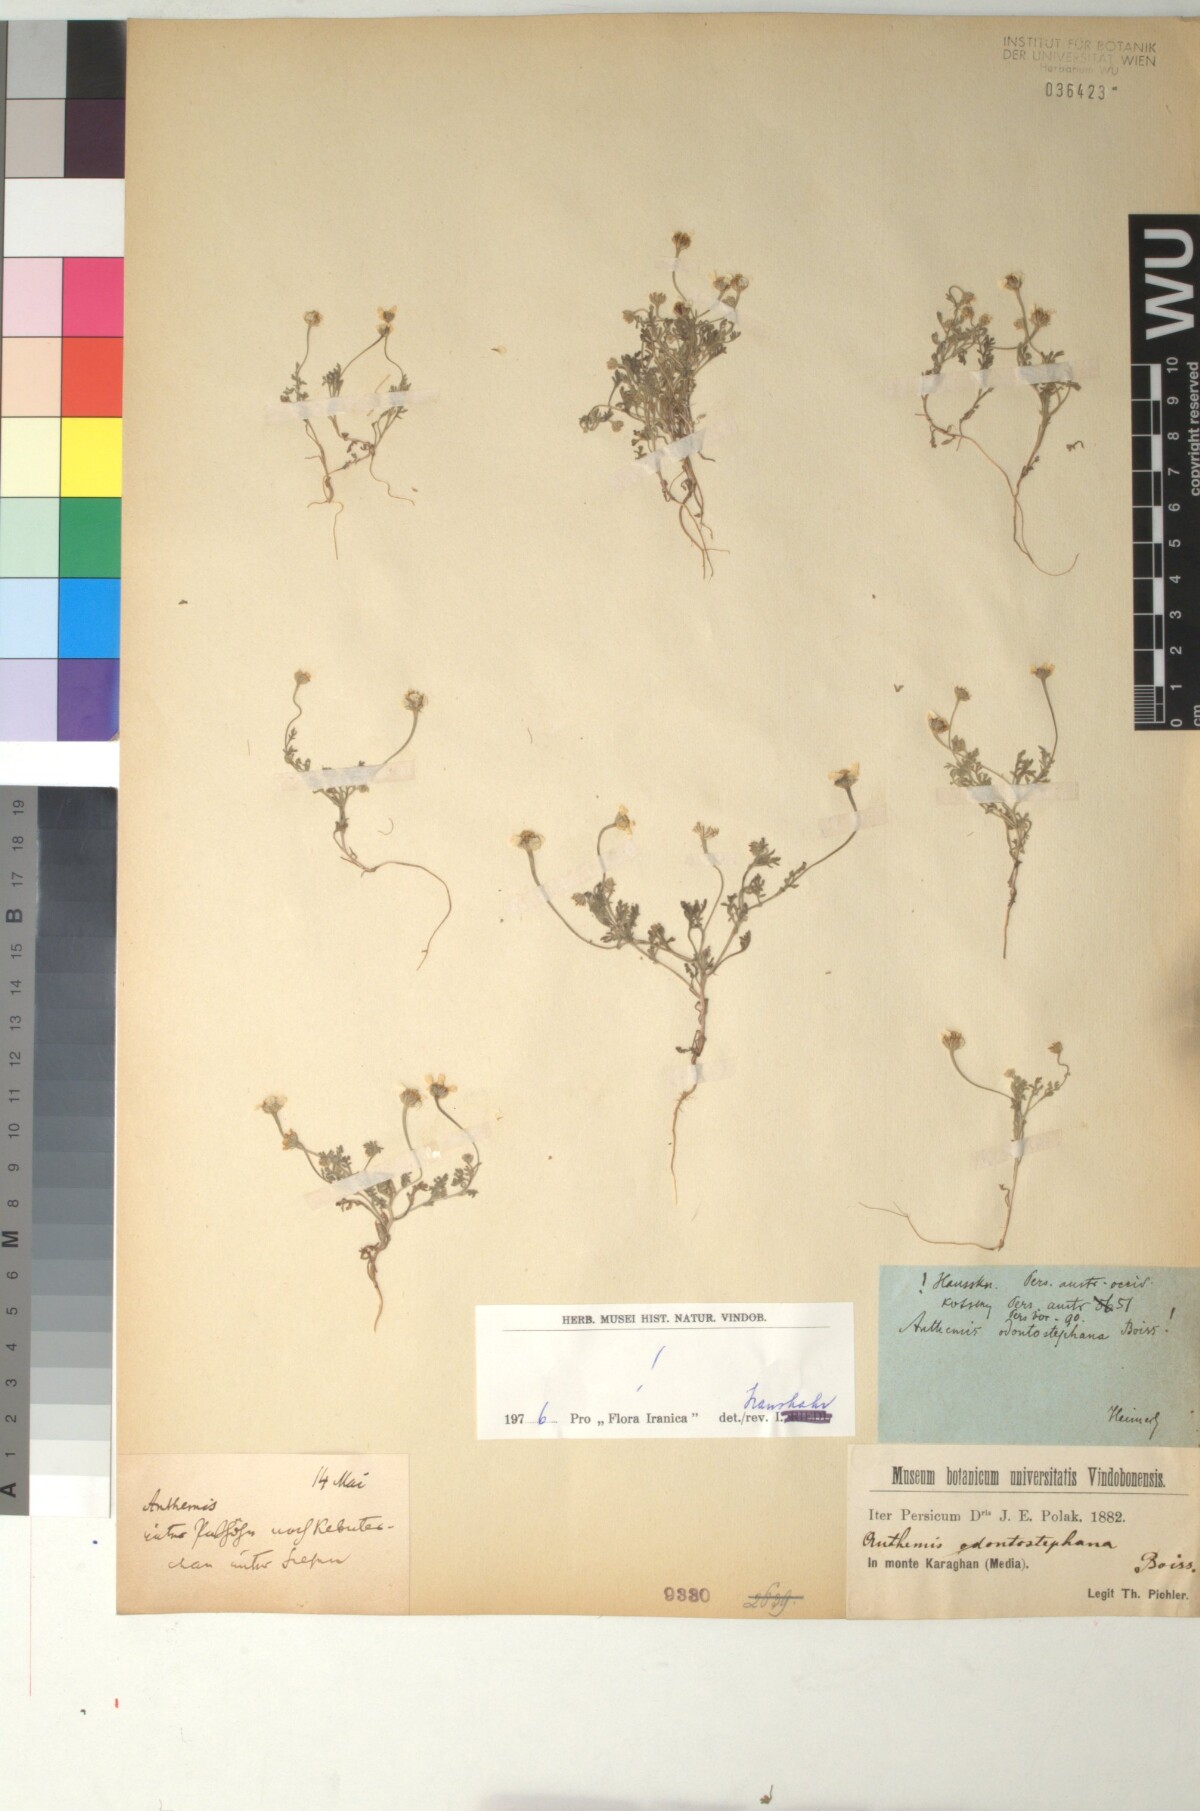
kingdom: Plantae
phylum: Tracheophyta
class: Magnoliopsida
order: Asterales
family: Asteraceae
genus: Anthemis
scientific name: Anthemis odontostephana
